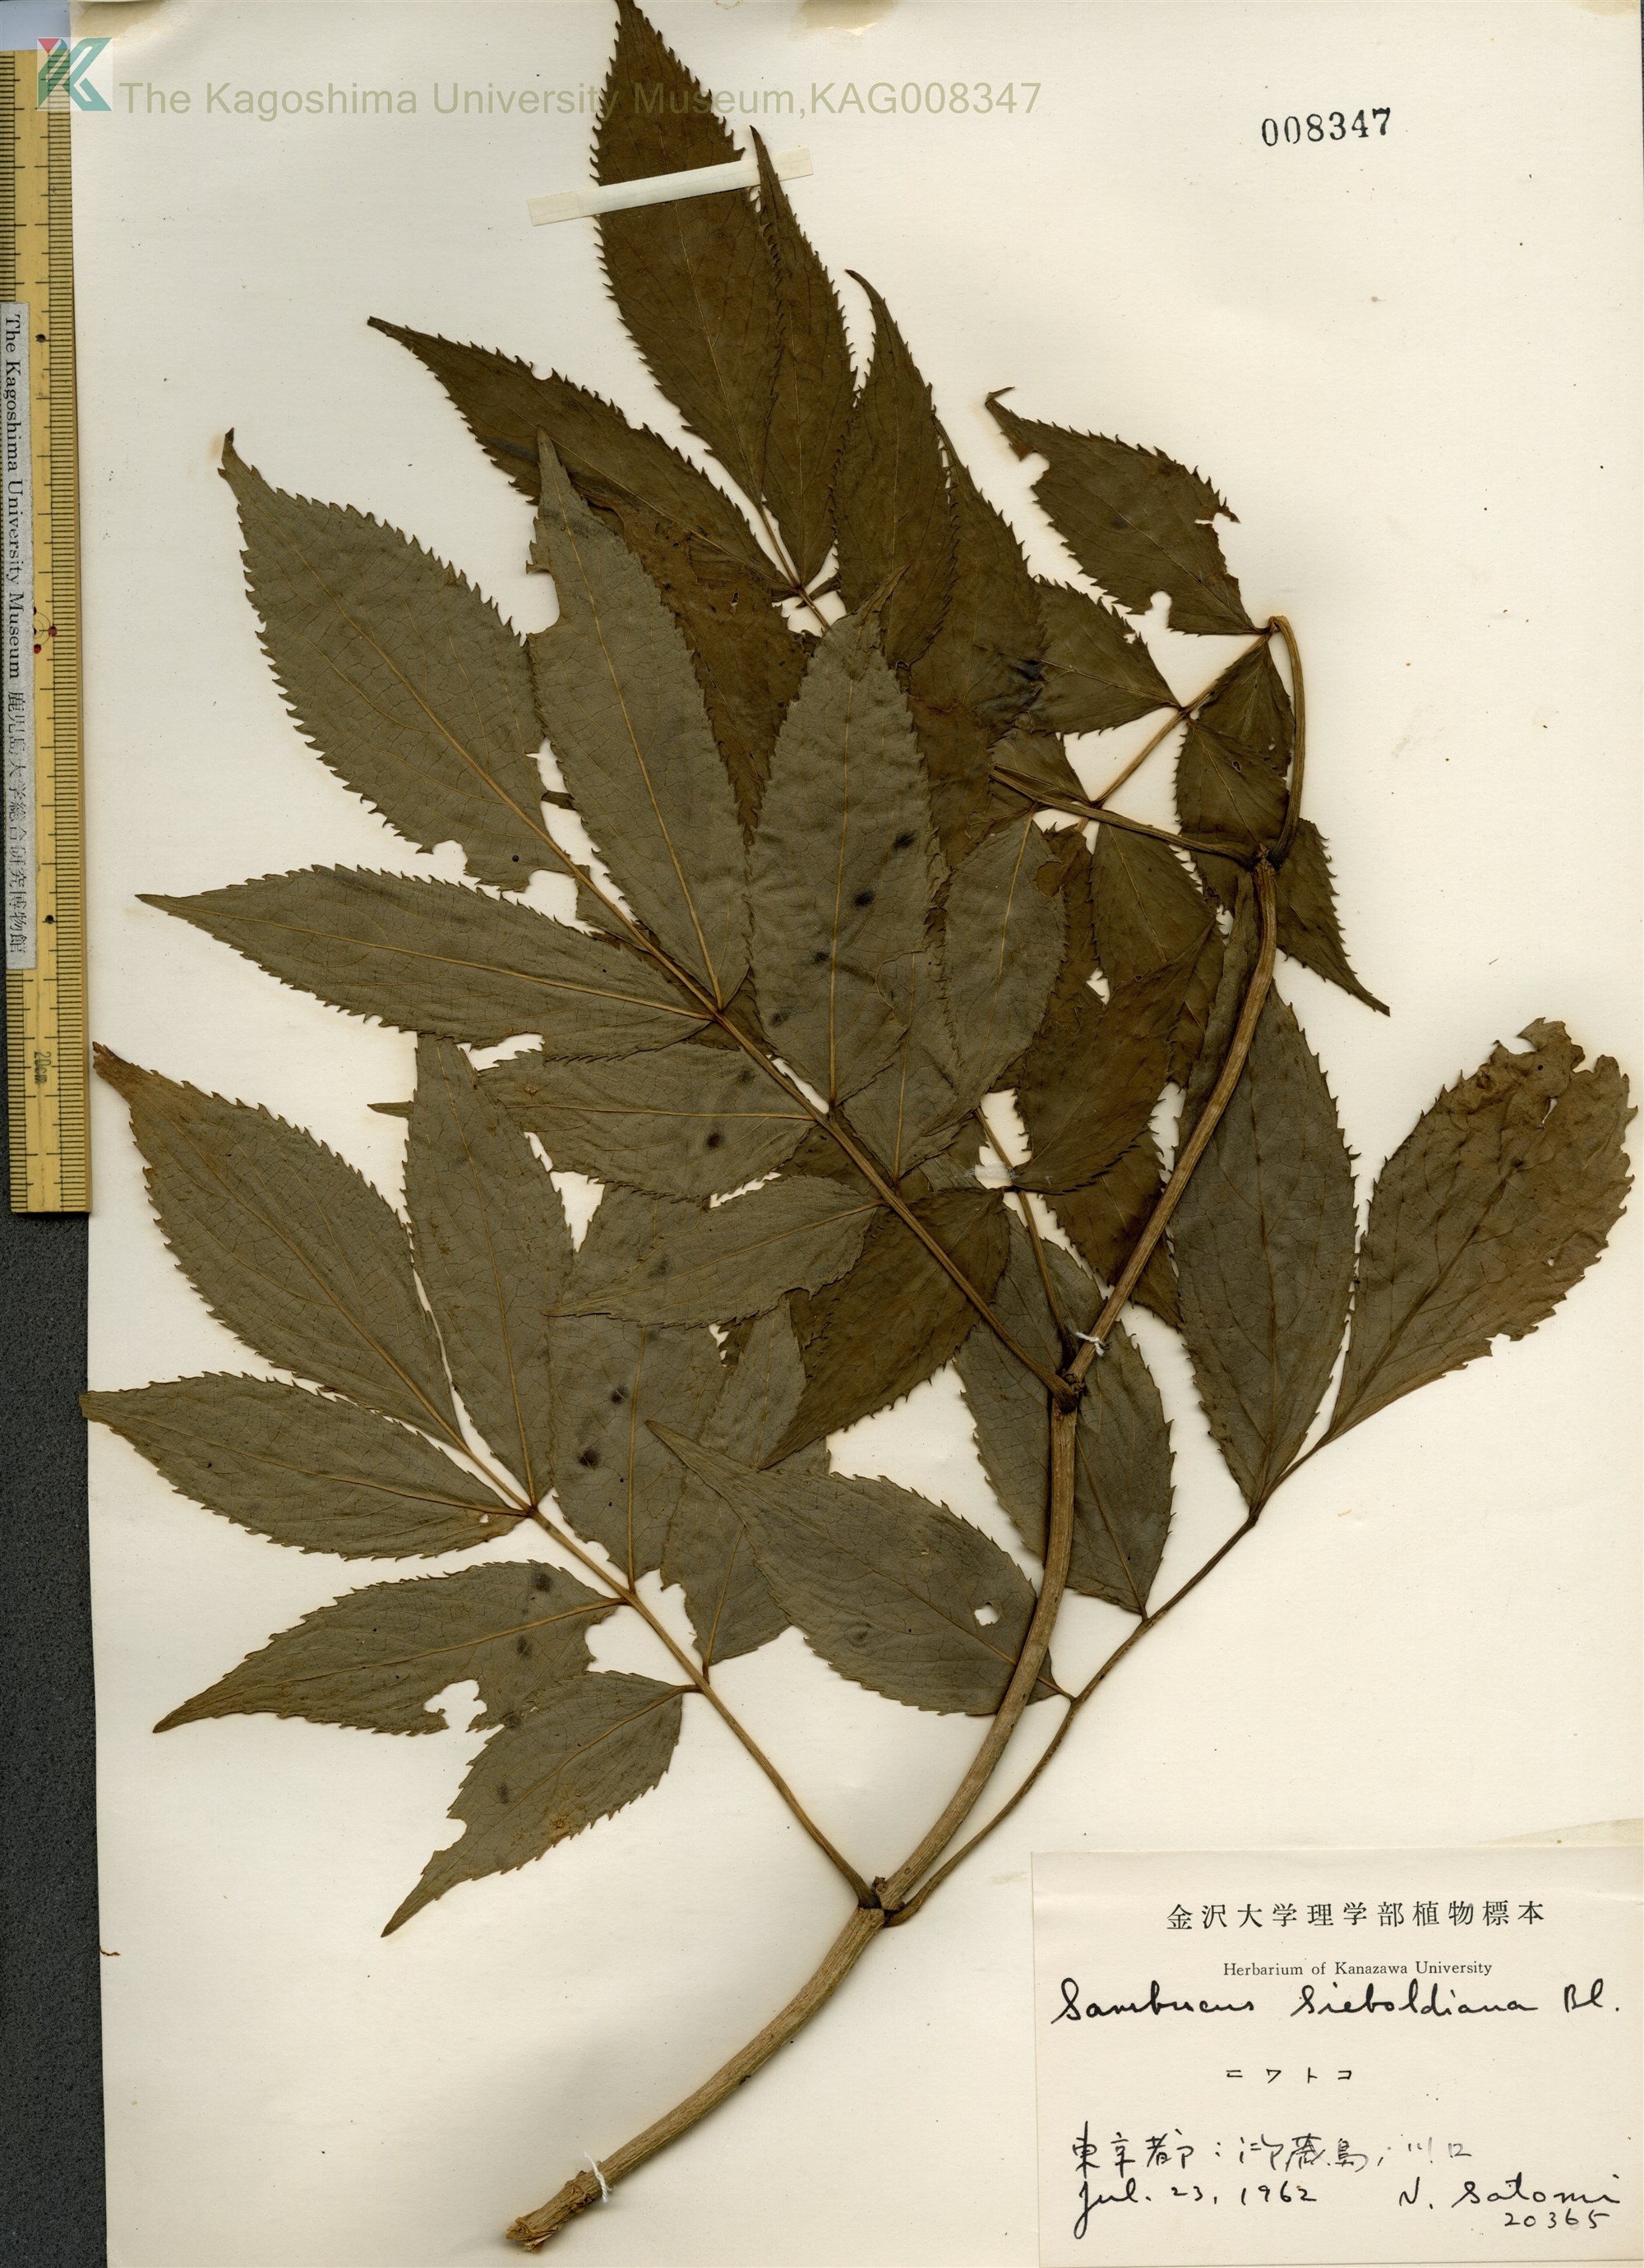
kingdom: Plantae
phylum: Tracheophyta
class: Magnoliopsida
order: Dipsacales
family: Viburnaceae
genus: Sambucus
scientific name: Sambucus sieboldiana
